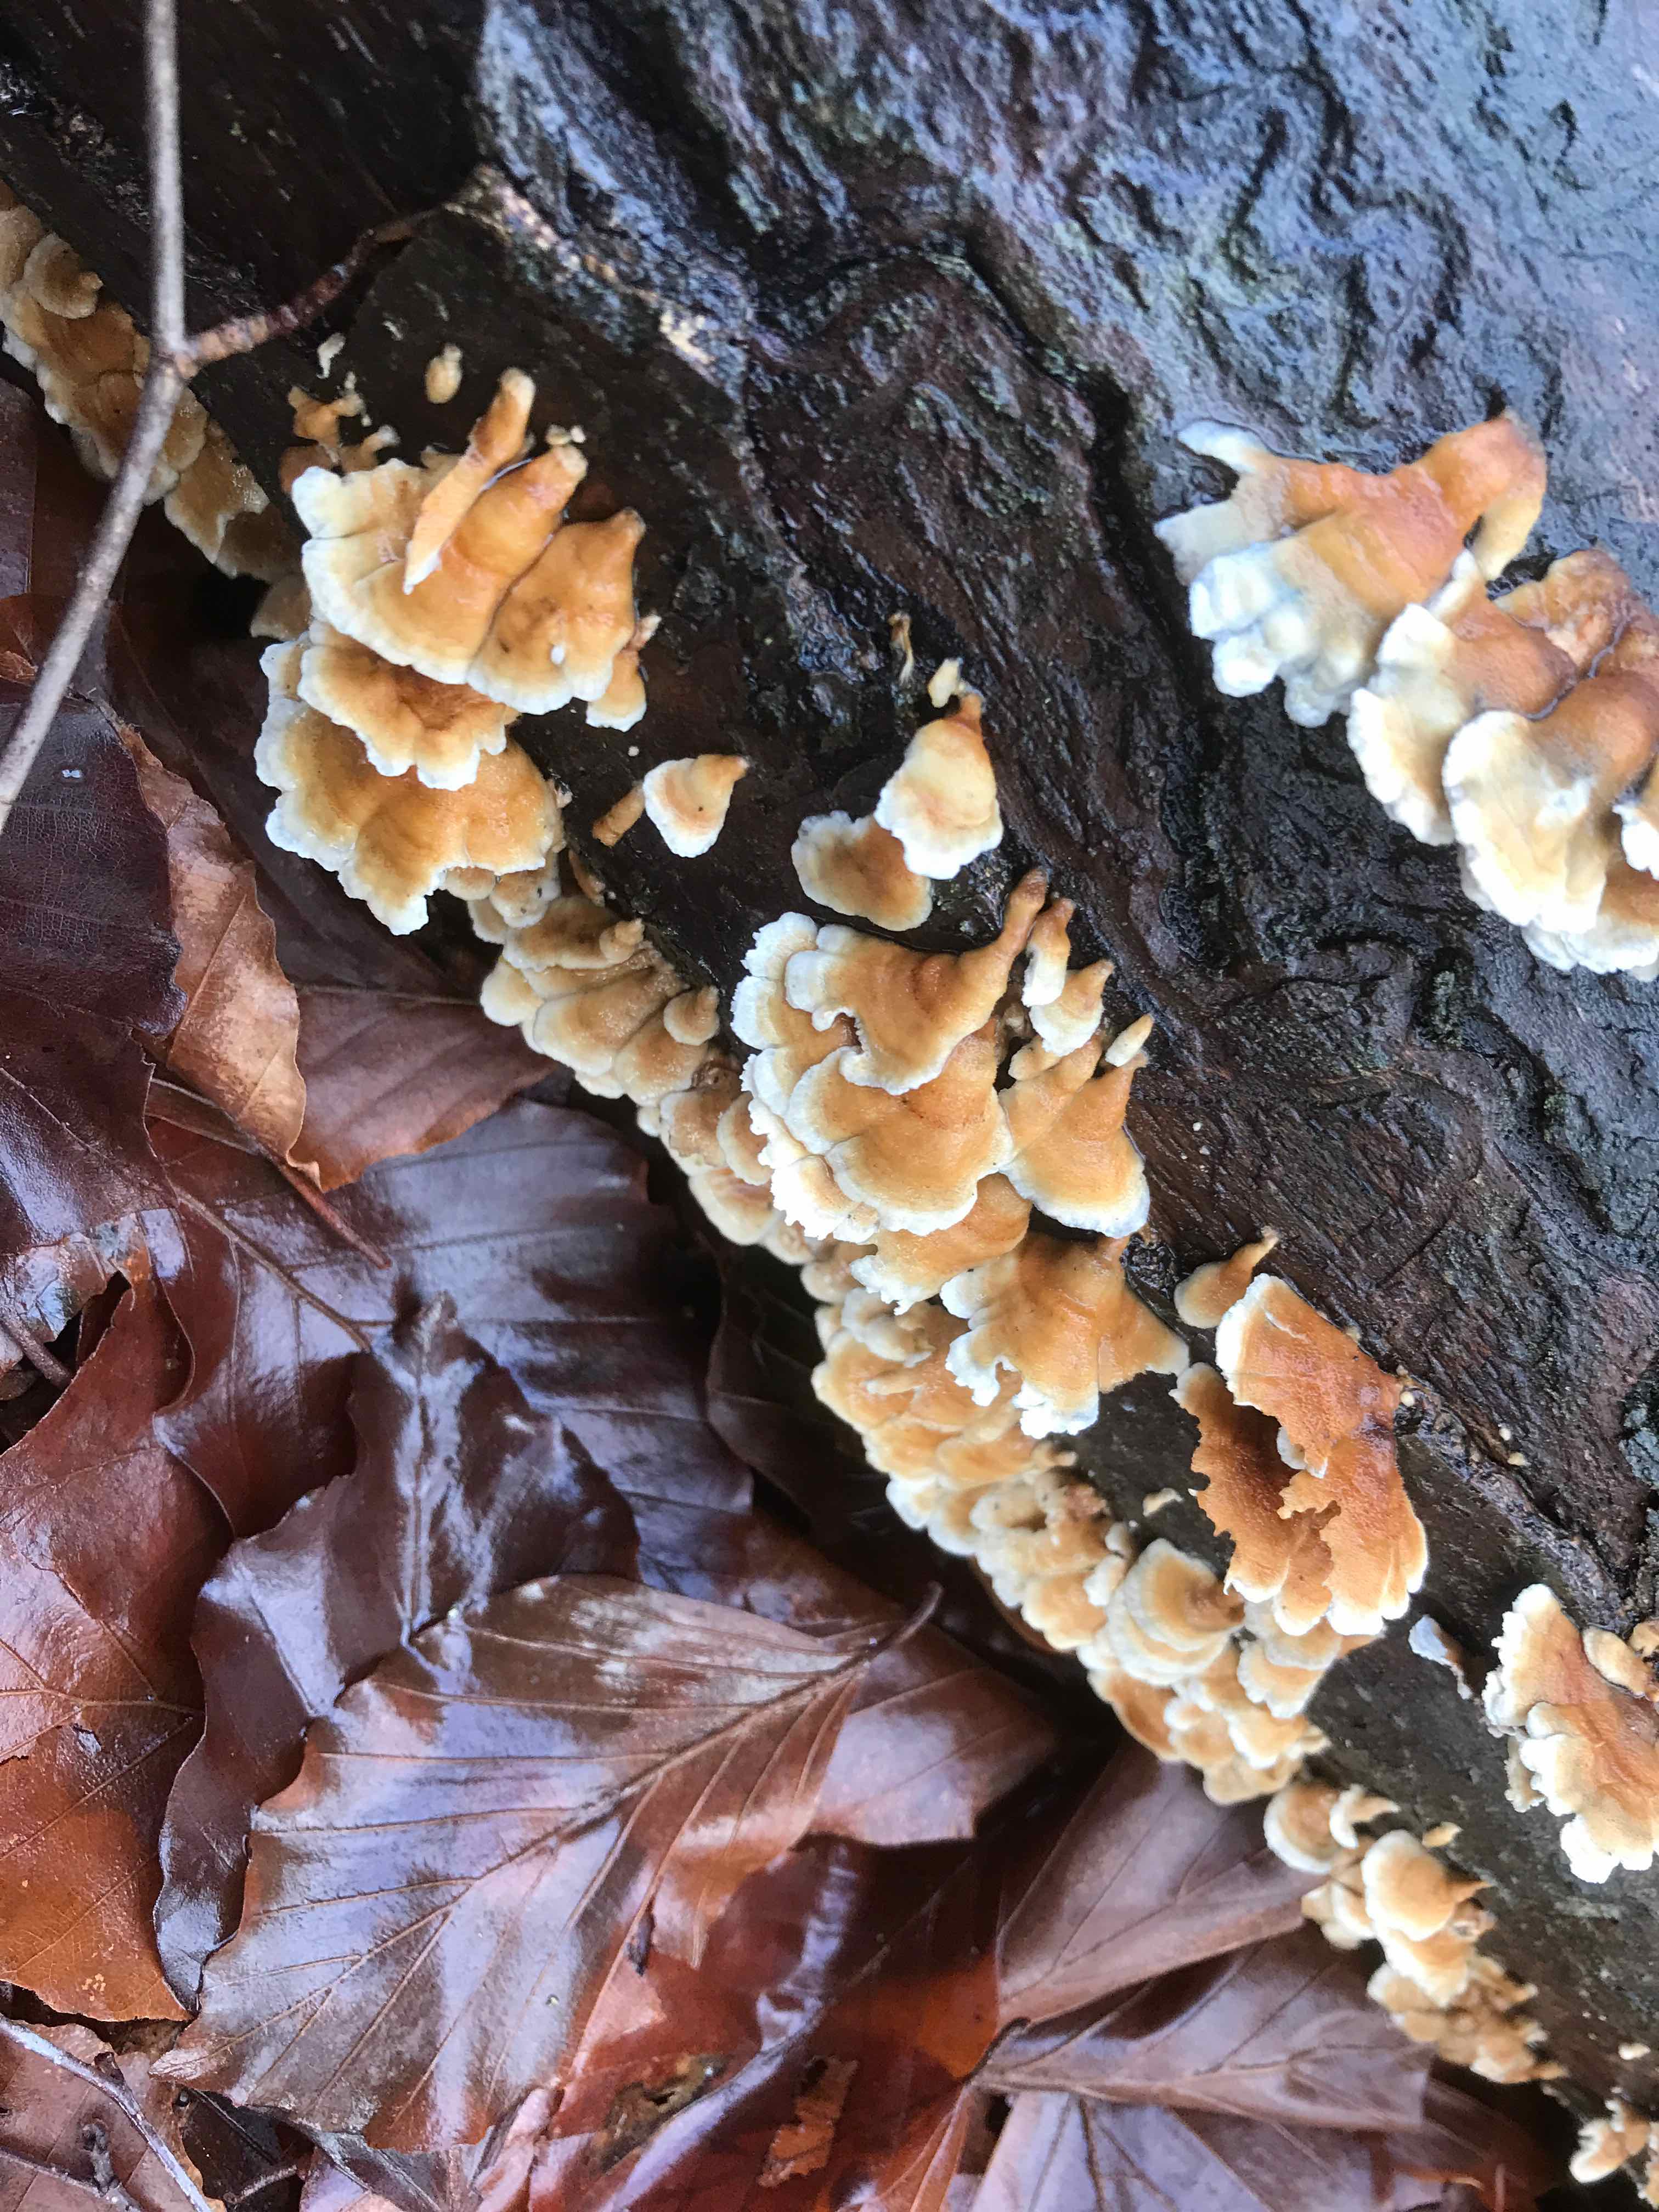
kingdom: Fungi
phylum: Basidiomycota
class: Agaricomycetes
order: Amylocorticiales
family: Amylocorticiaceae
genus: Plicaturopsis
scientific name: Plicaturopsis crispa
